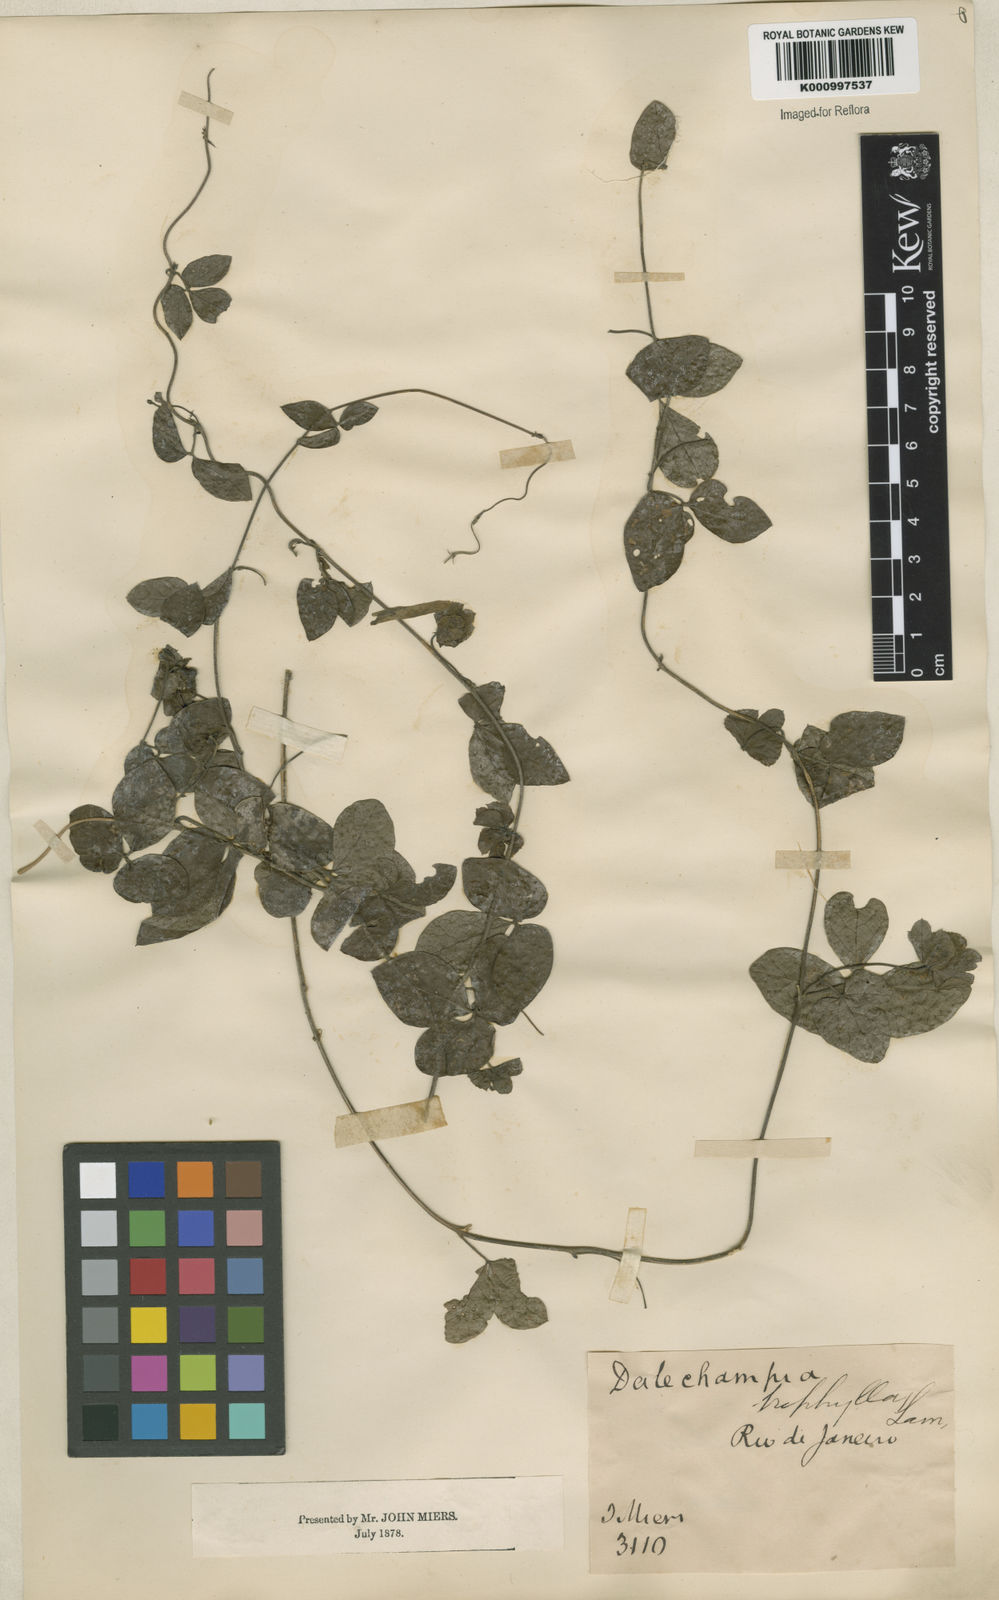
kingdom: Plantae
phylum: Tracheophyta
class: Magnoliopsida
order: Malpighiales
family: Euphorbiaceae
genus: Dalechampia
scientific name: Dalechampia triphylla
